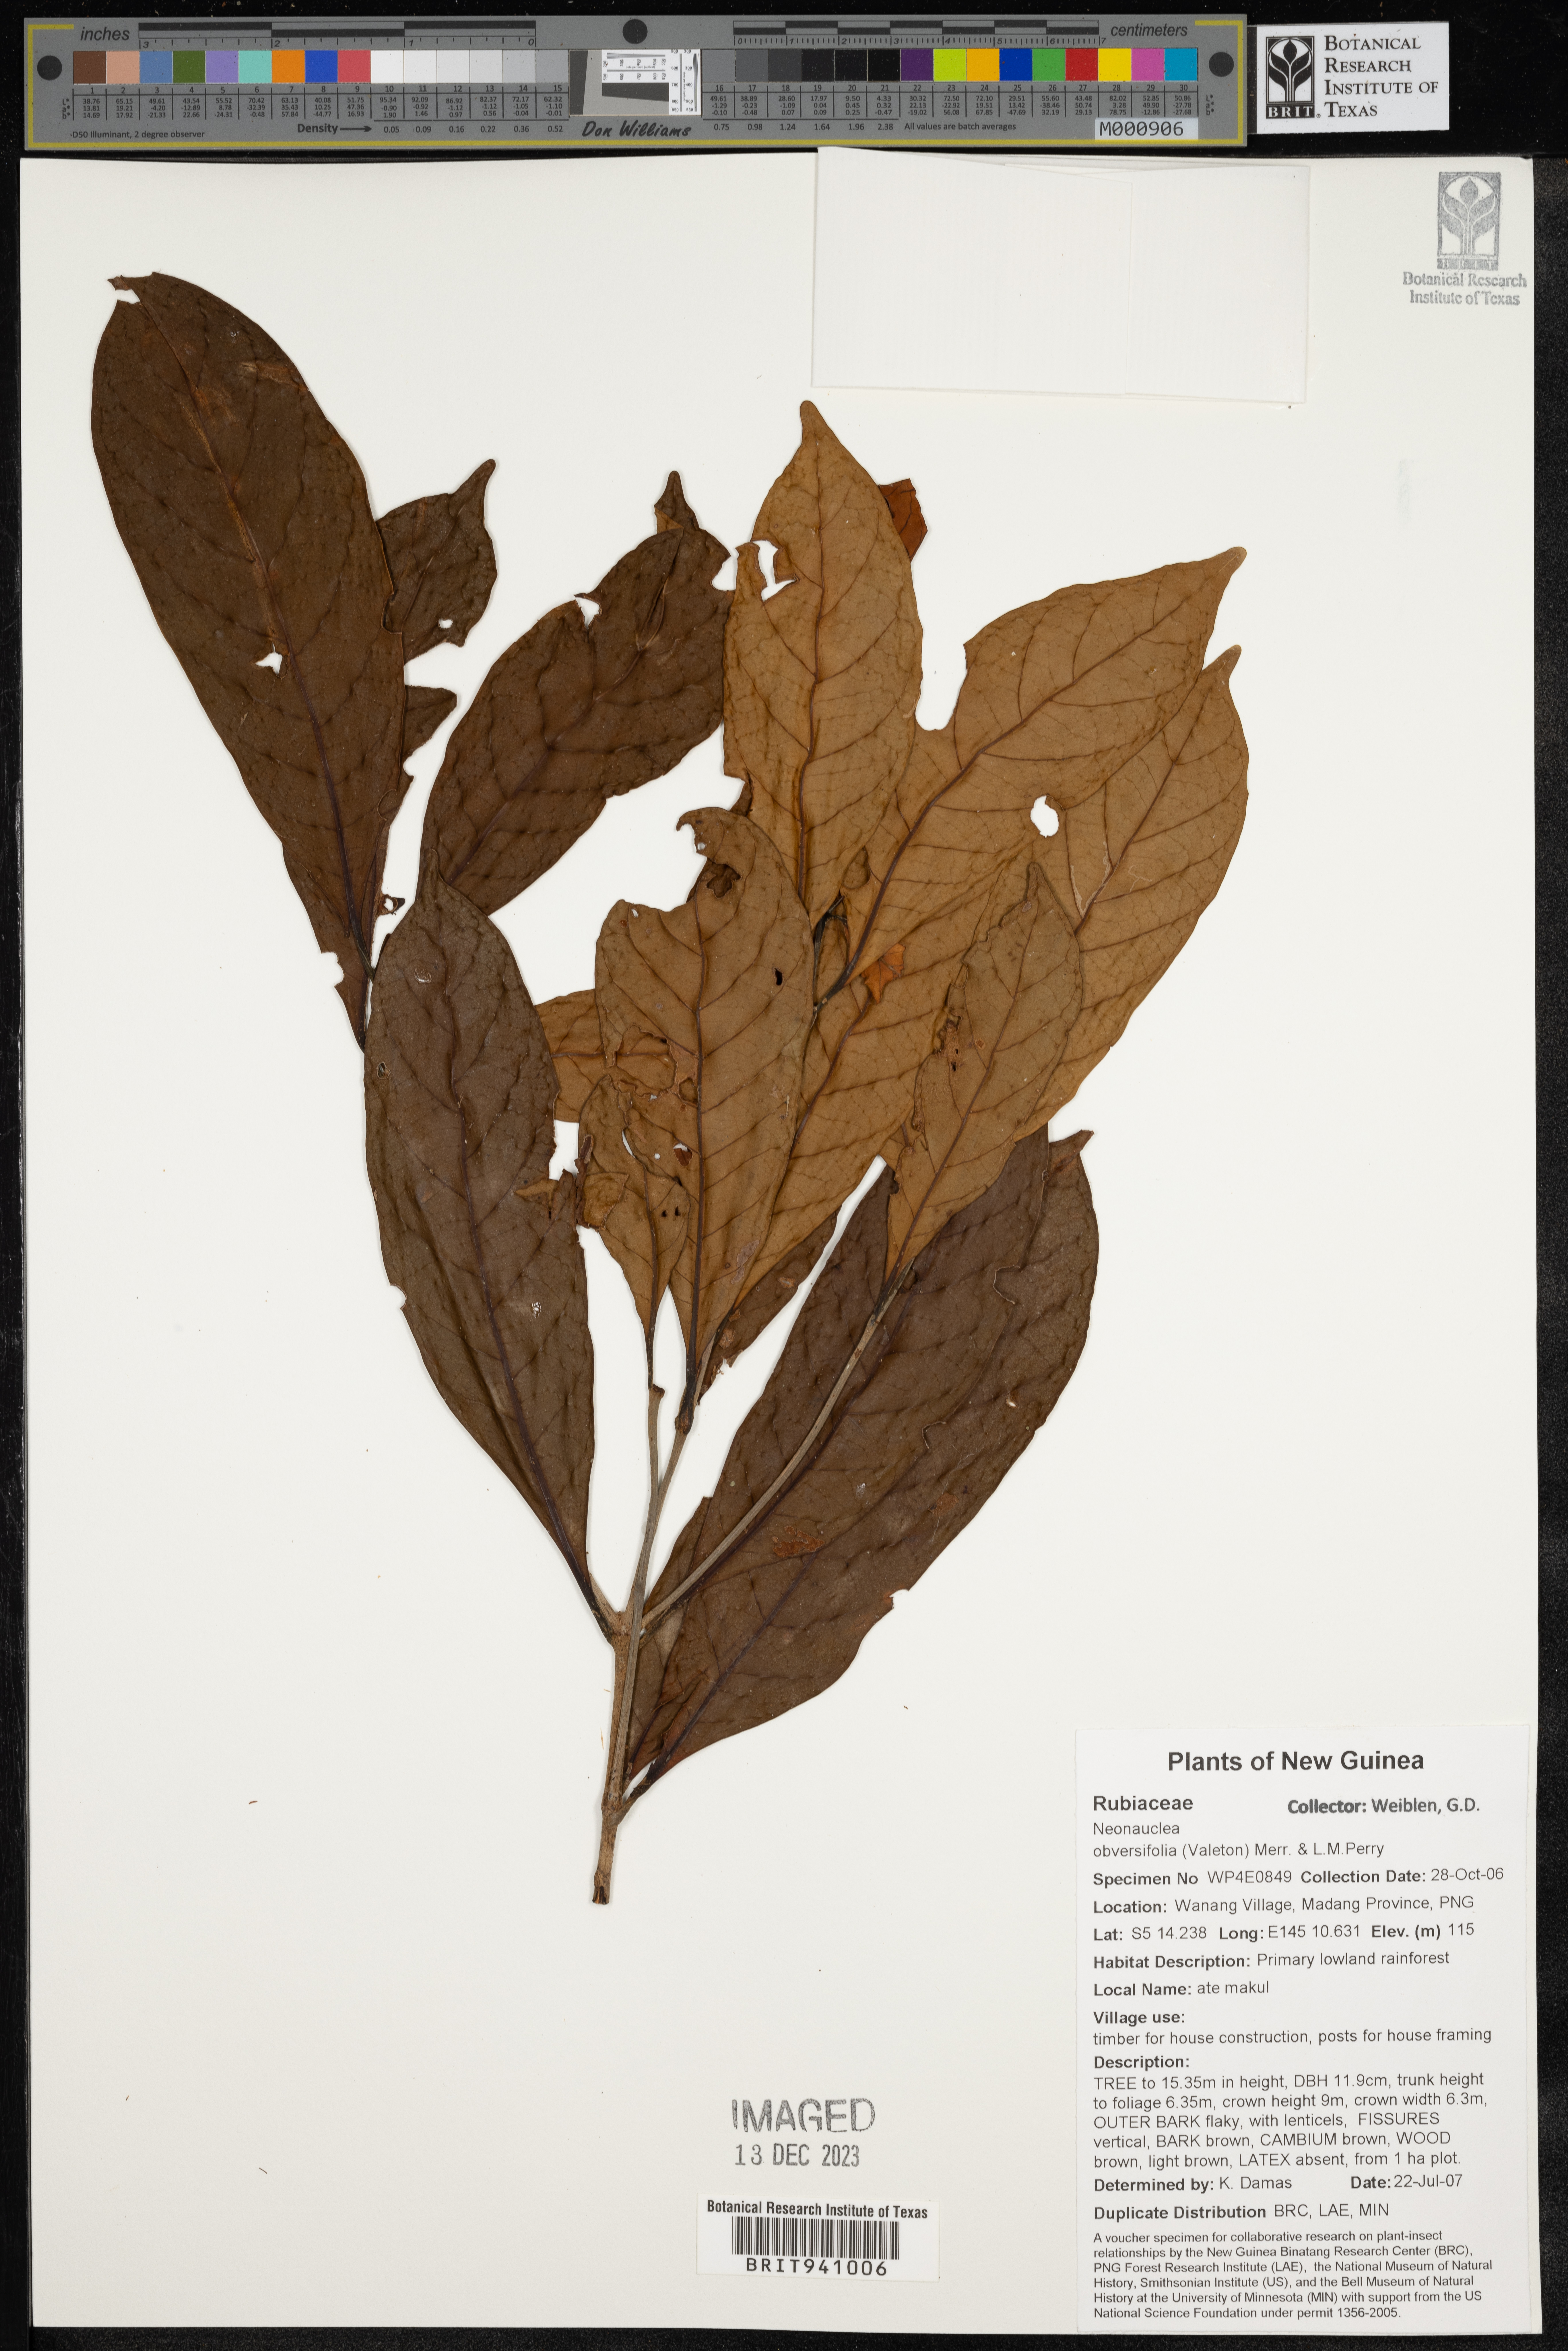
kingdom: Plantae
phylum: Tracheophyta
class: Magnoliopsida
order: Gentianales
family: Rubiaceae
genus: Neonauclea
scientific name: Neonauclea
